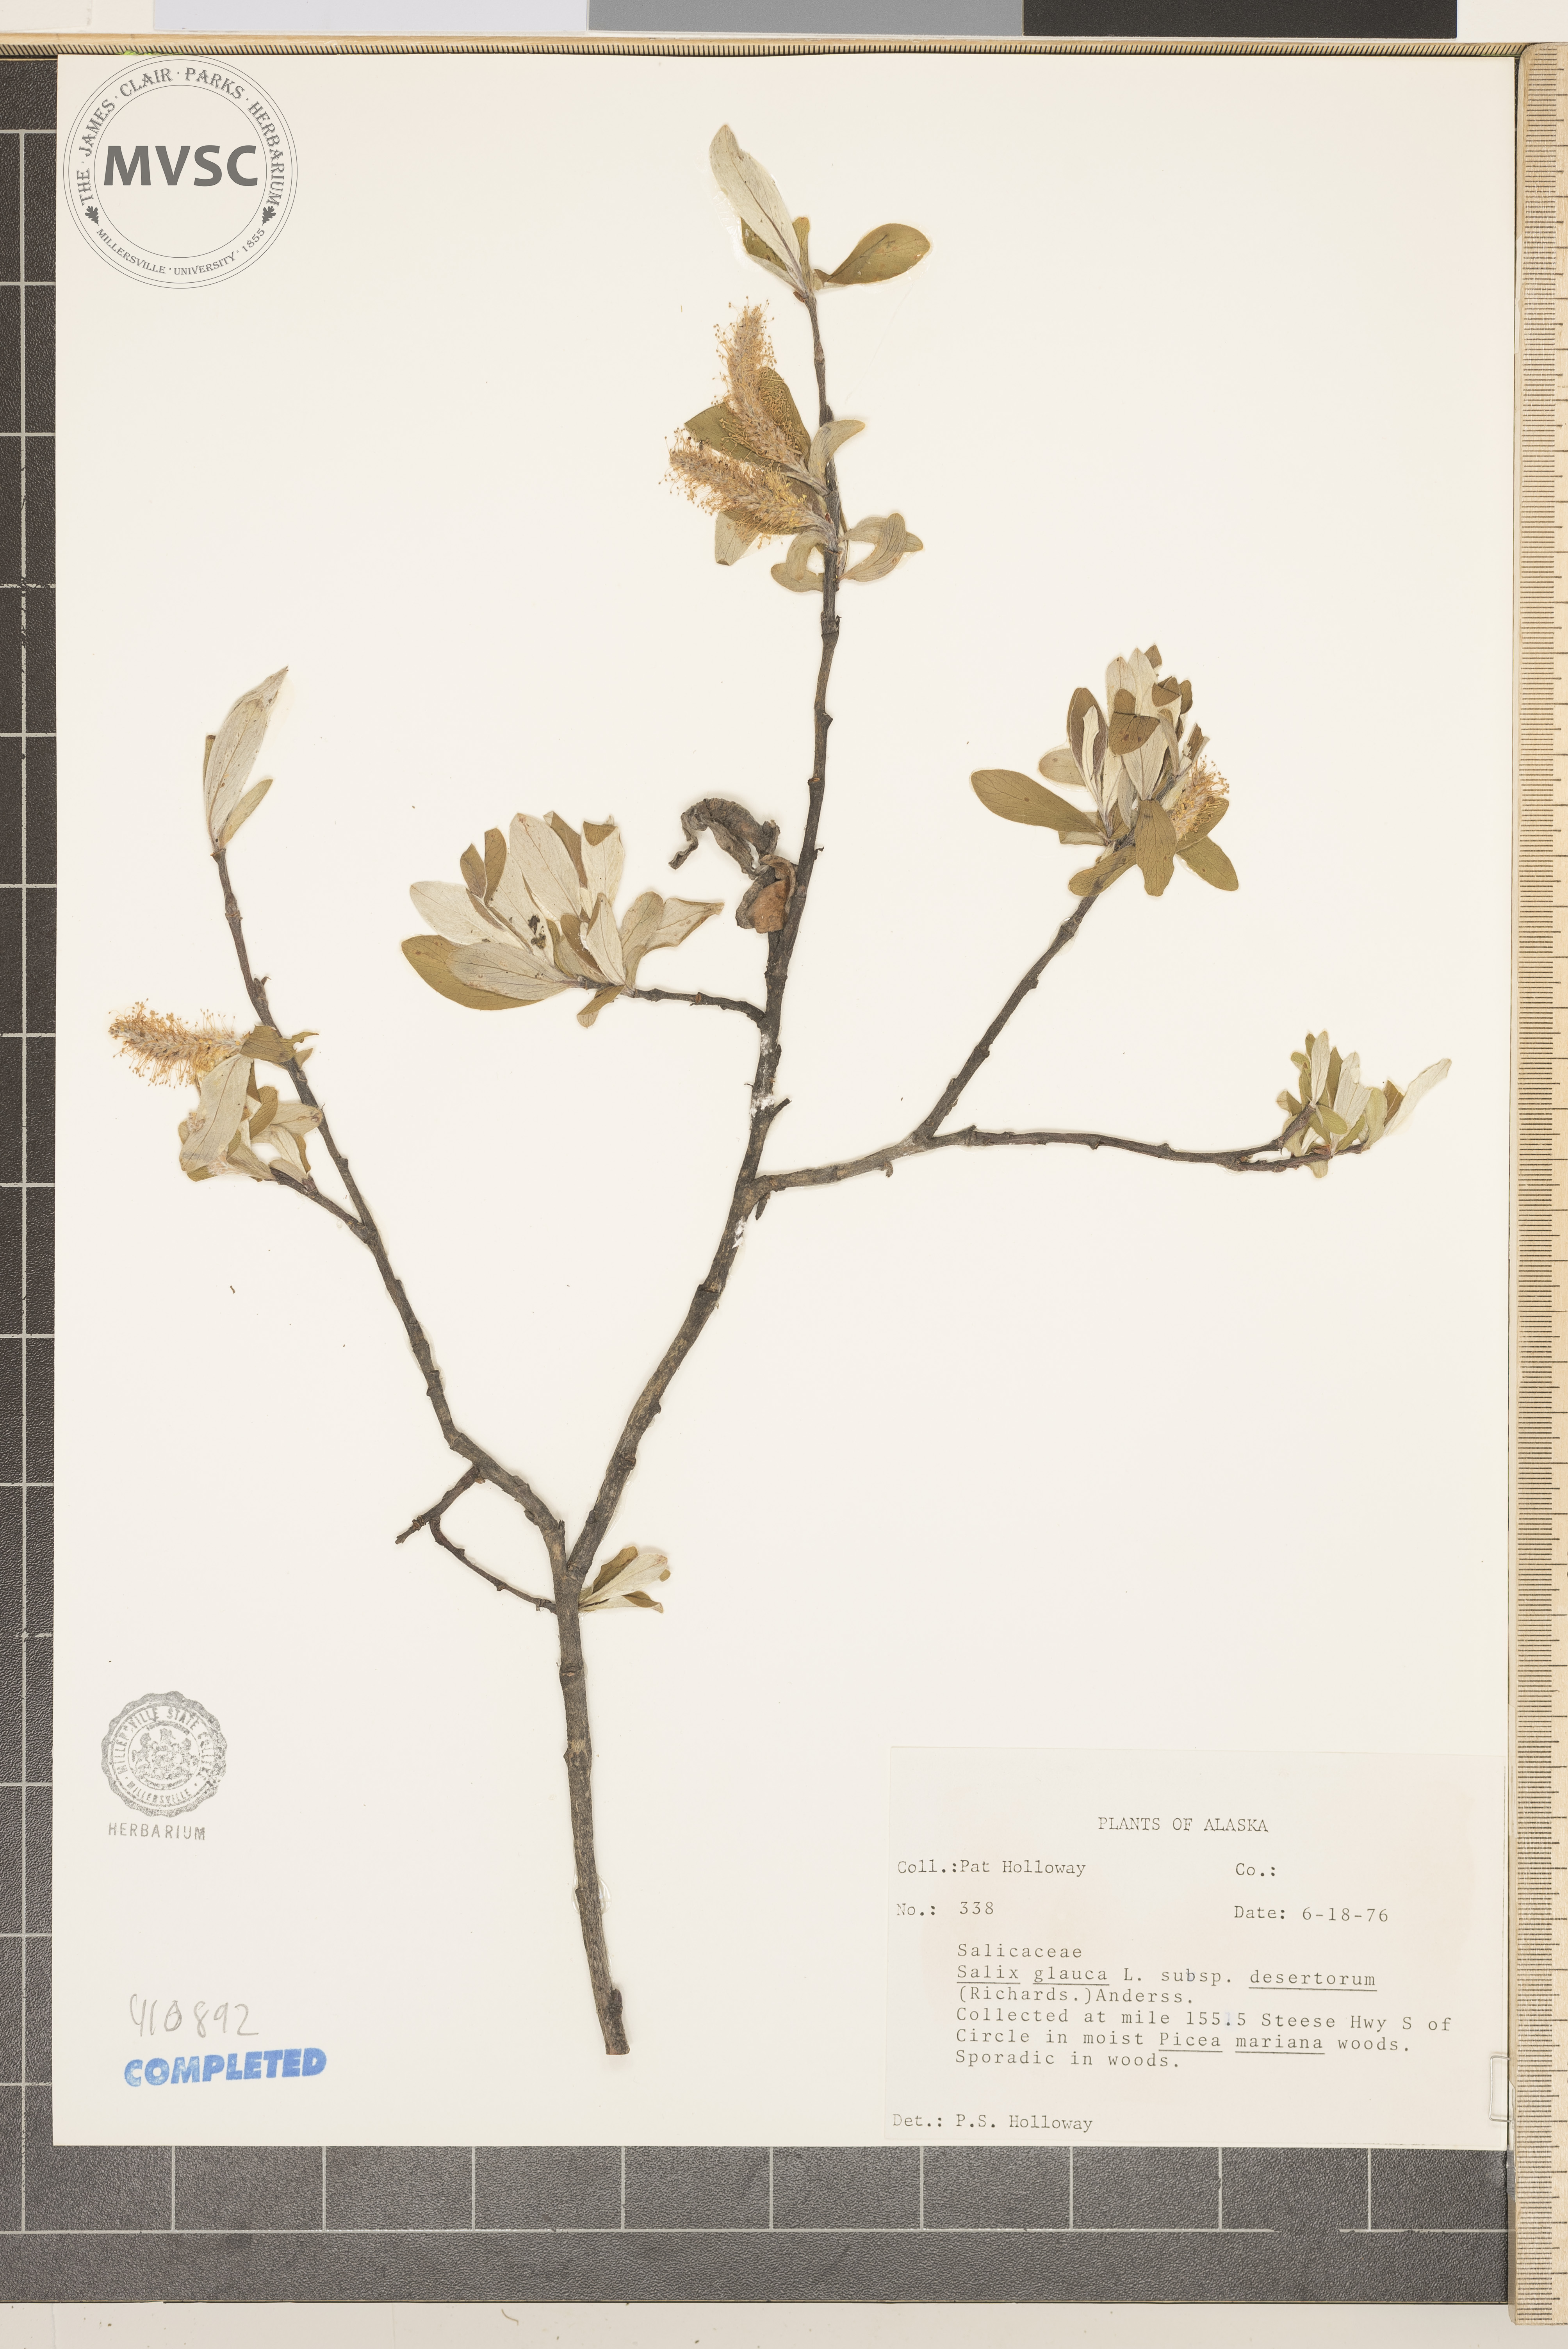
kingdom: Plantae
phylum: Tracheophyta
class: Magnoliopsida
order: Malpighiales
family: Salicaceae
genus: Salix
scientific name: Salix glauca
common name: Glaucous willow
